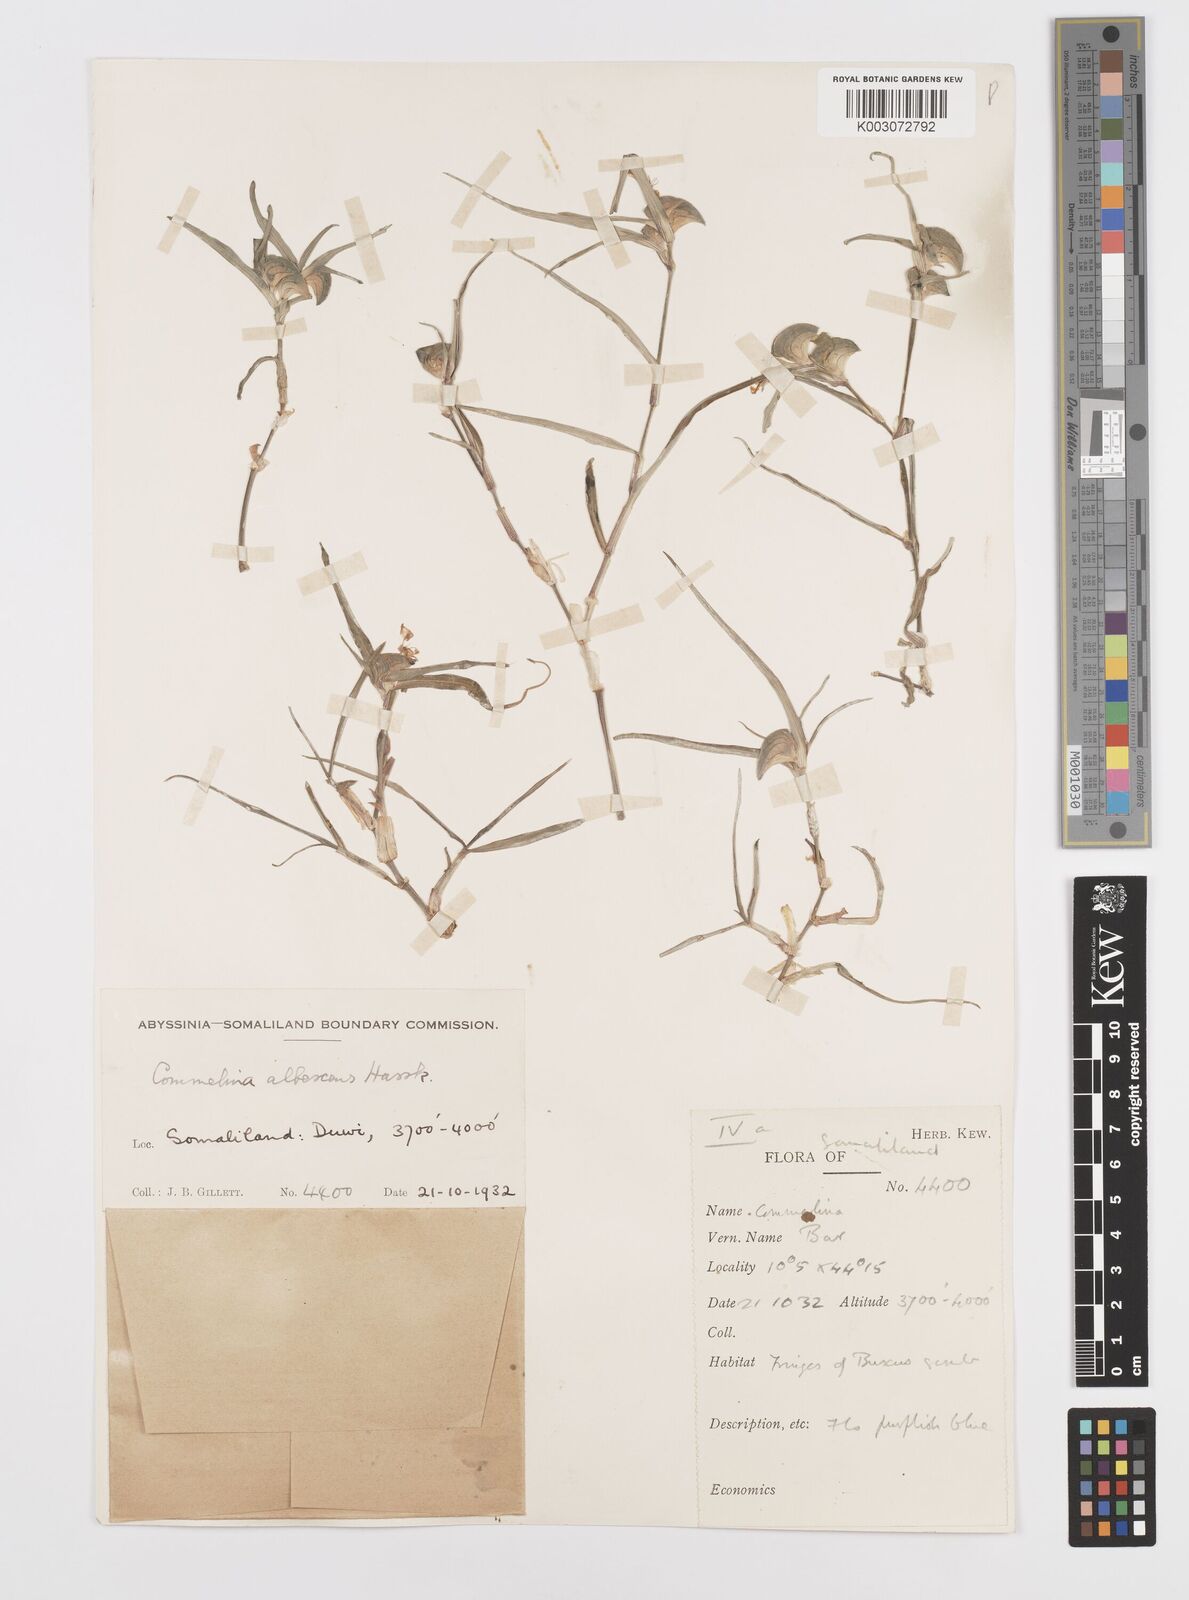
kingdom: Plantae
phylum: Tracheophyta
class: Liliopsida
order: Commelinales
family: Commelinaceae
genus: Commelina
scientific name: Commelina albescens
